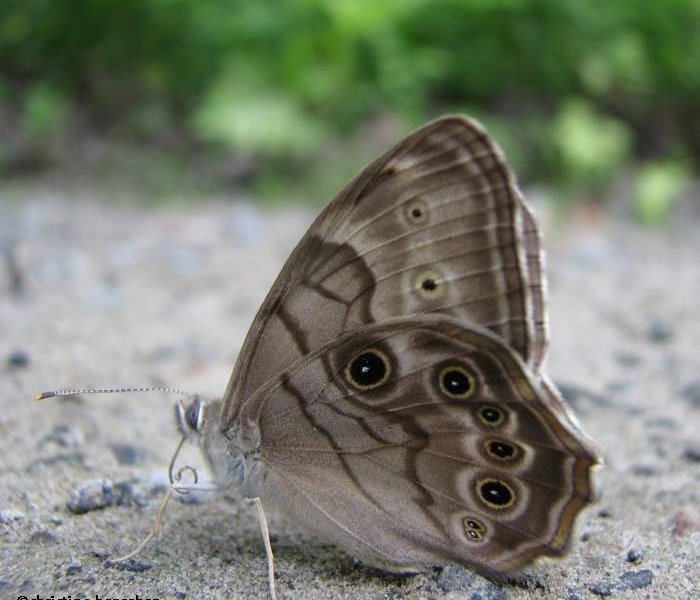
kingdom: Animalia
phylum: Arthropoda
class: Insecta
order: Lepidoptera
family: Nymphalidae
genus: Lethe
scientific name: Lethe anthedon
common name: Northern Pearly-Eye
